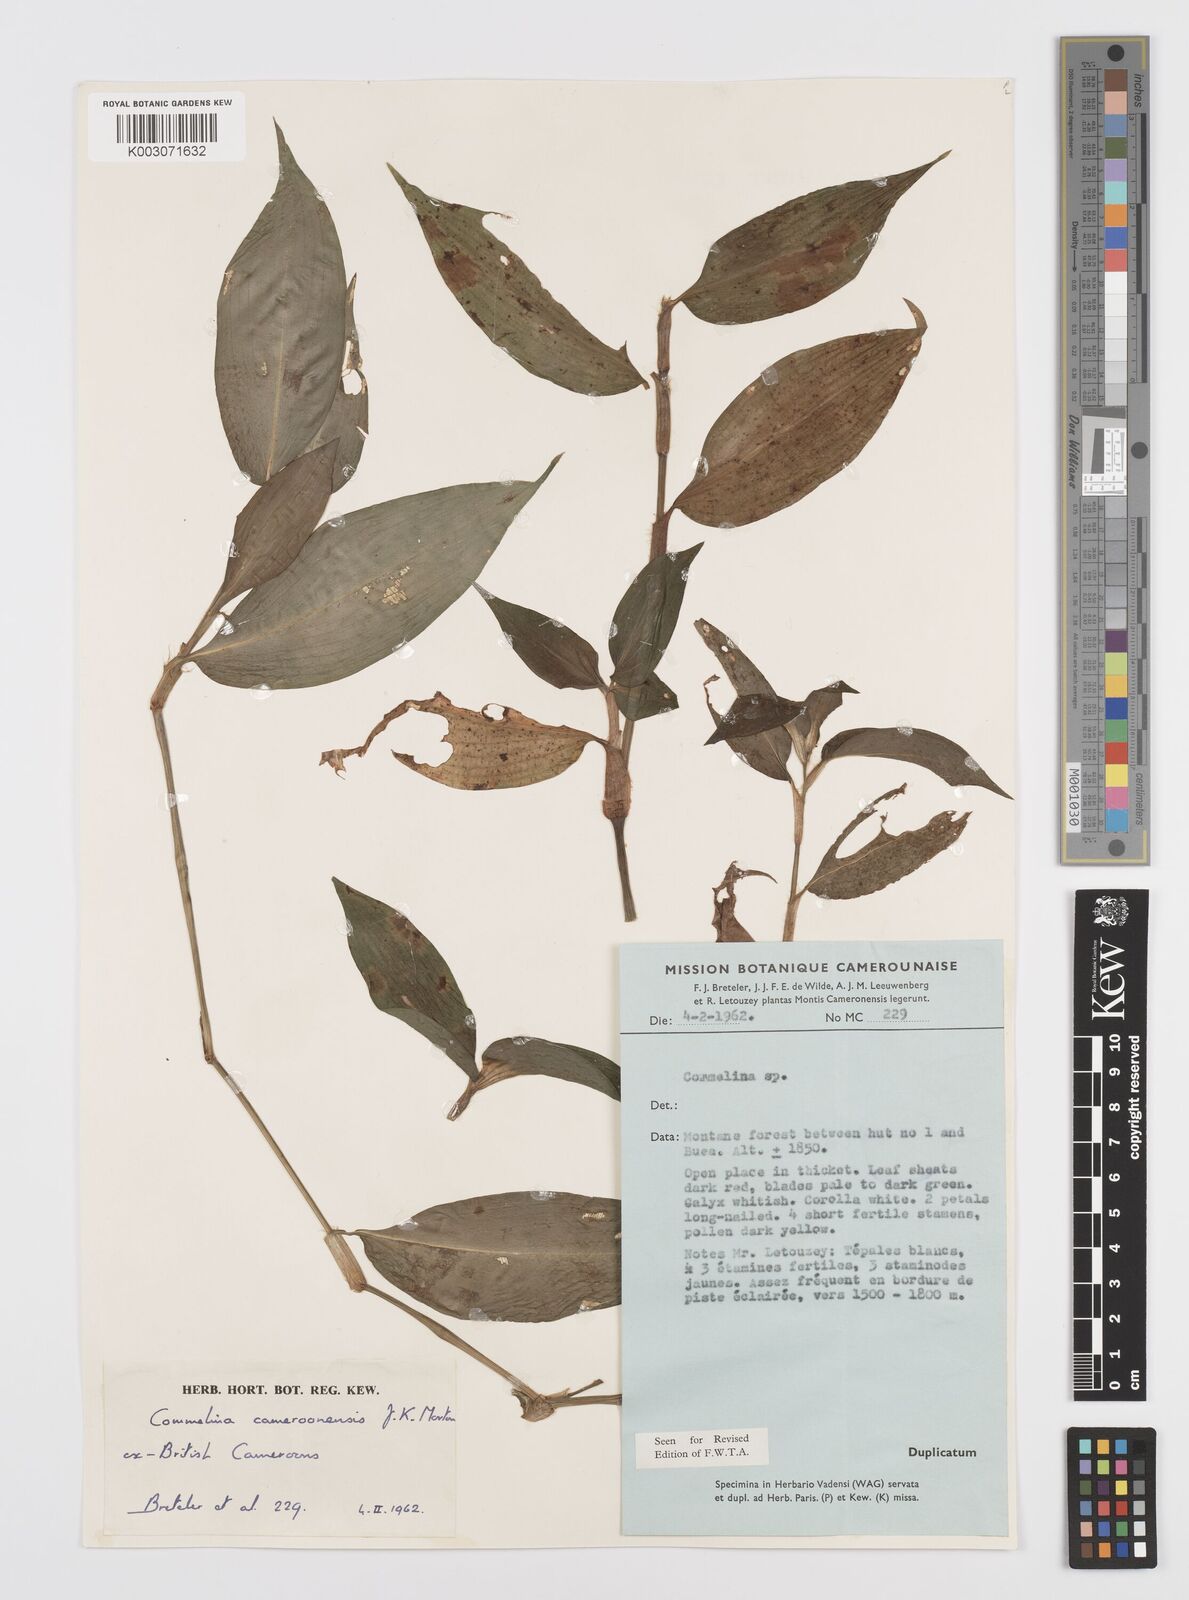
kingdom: Plantae
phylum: Tracheophyta
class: Liliopsida
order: Commelinales
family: Commelinaceae
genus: Commelina
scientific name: Commelina cameroonensis
